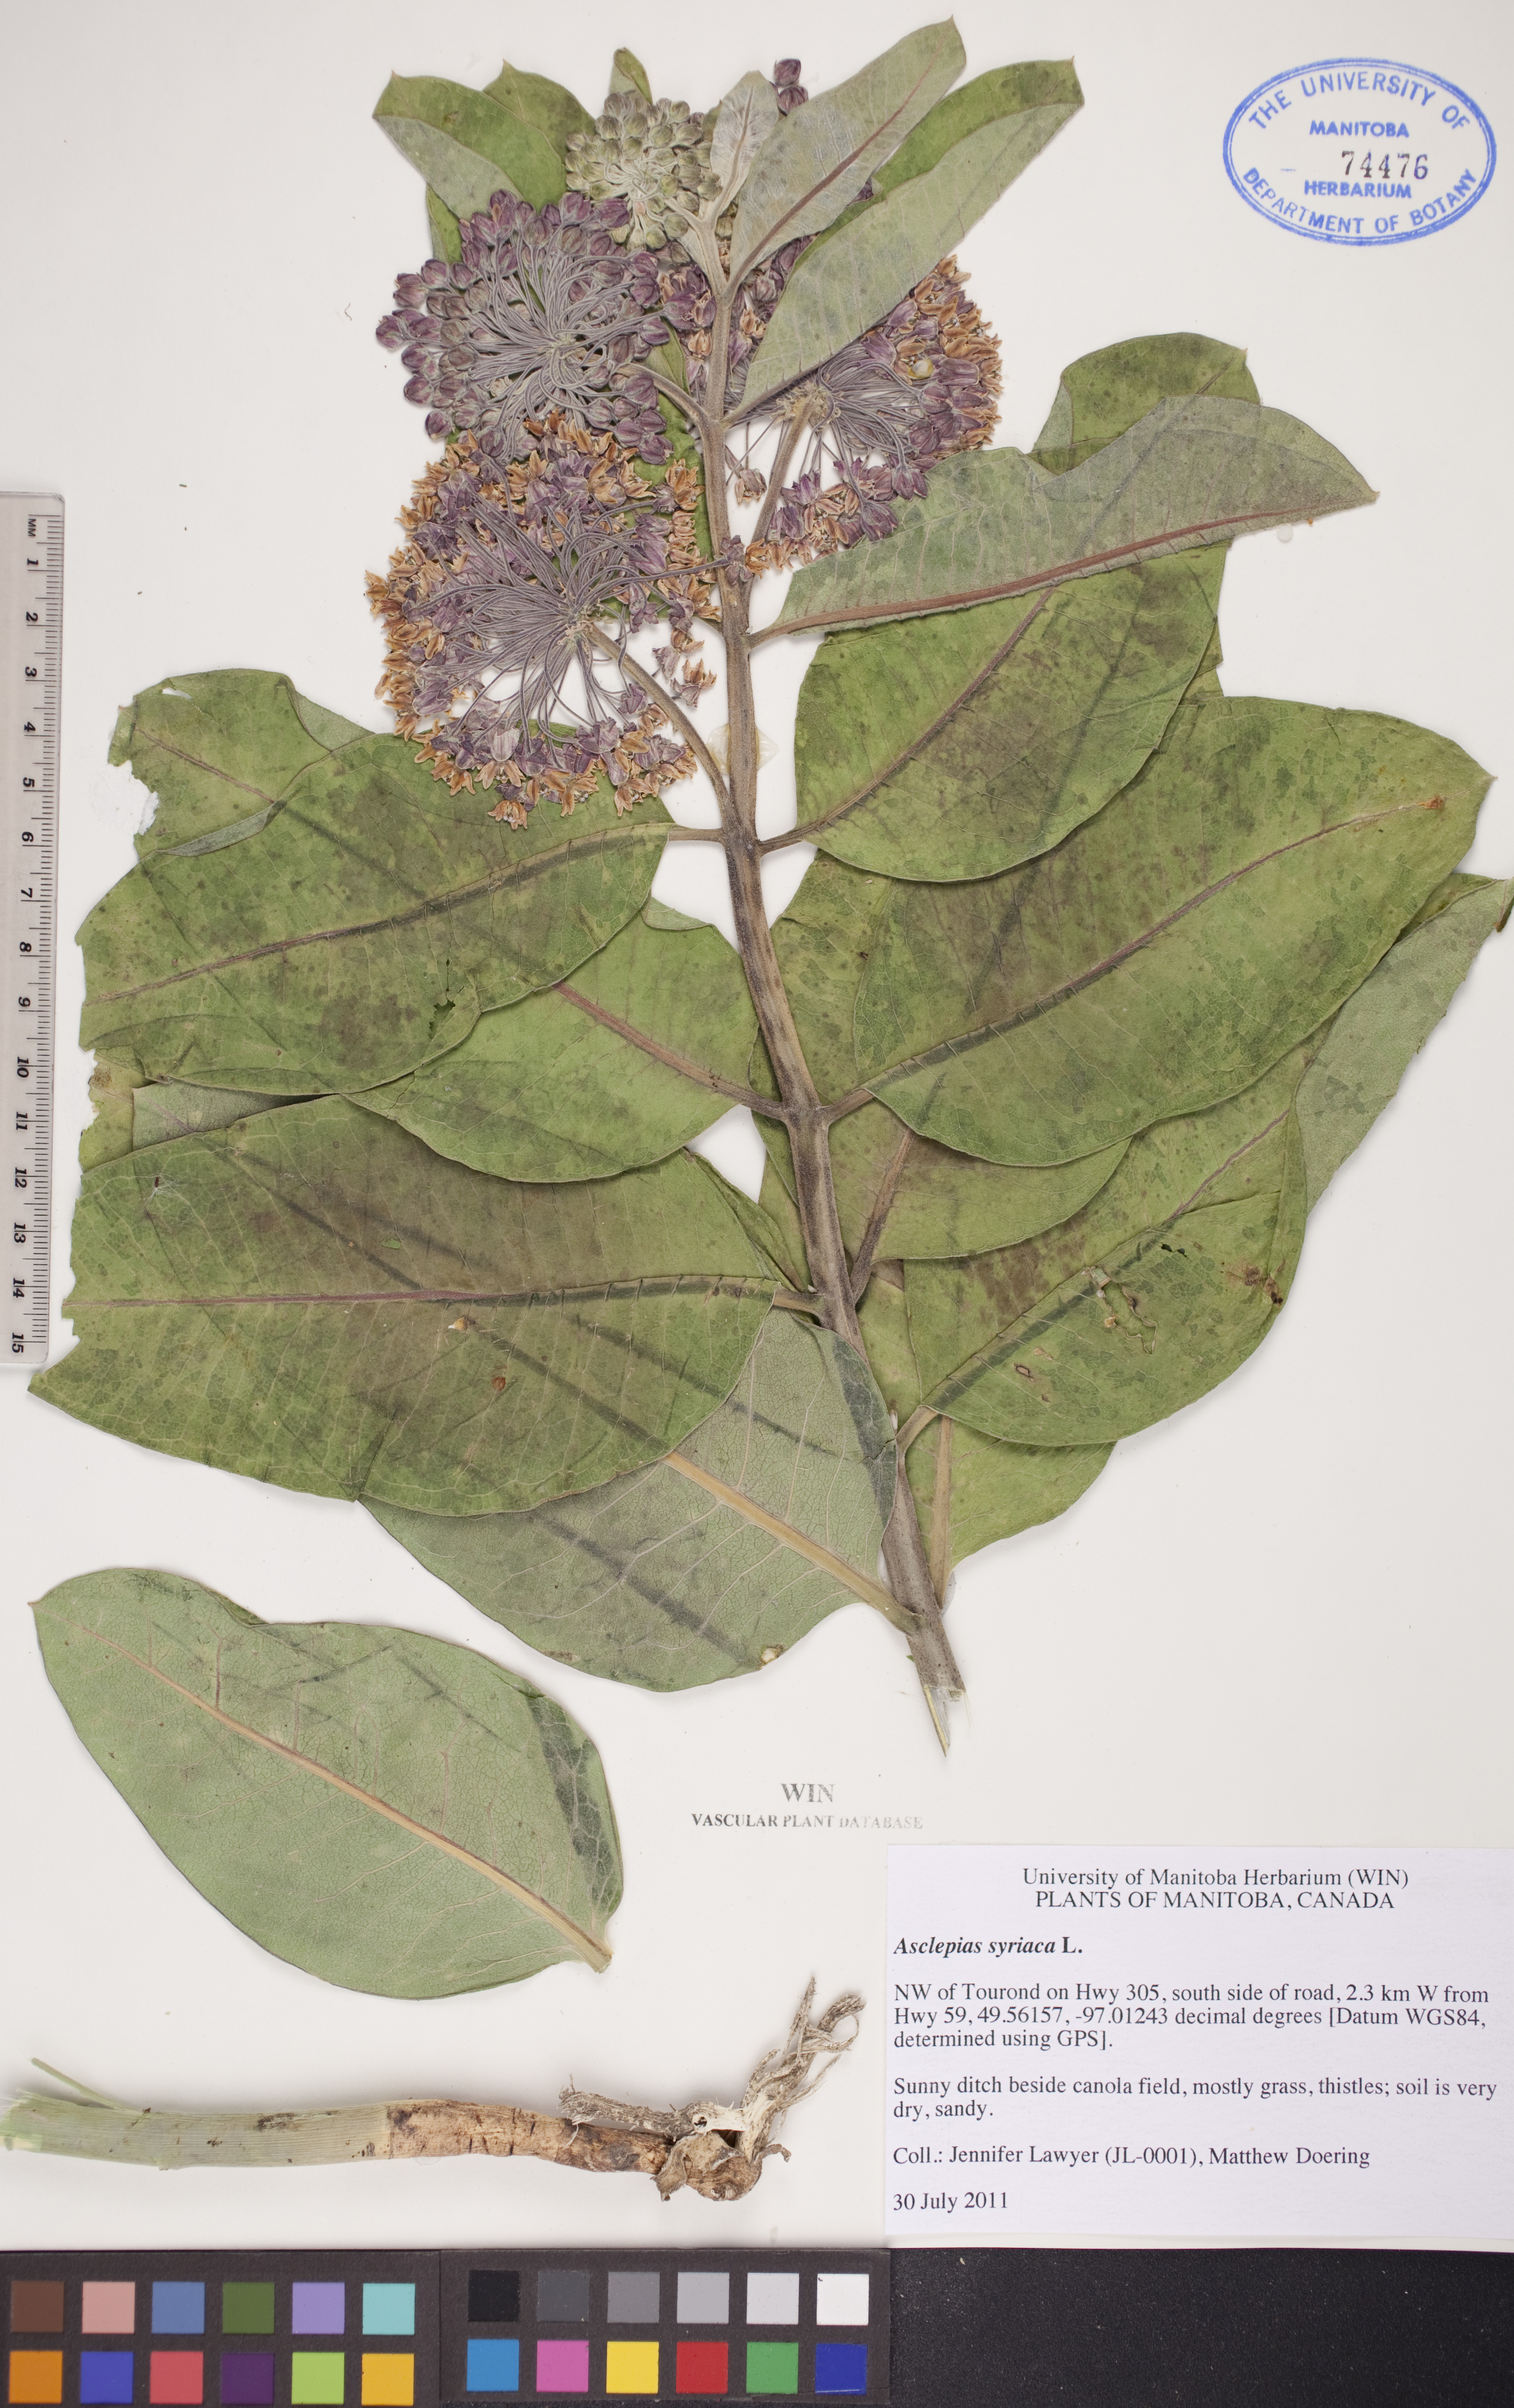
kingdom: Plantae
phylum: Tracheophyta
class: Magnoliopsida
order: Gentianales
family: Apocynaceae
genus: Asclepias
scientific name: Asclepias syriaca
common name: Common milkweed
